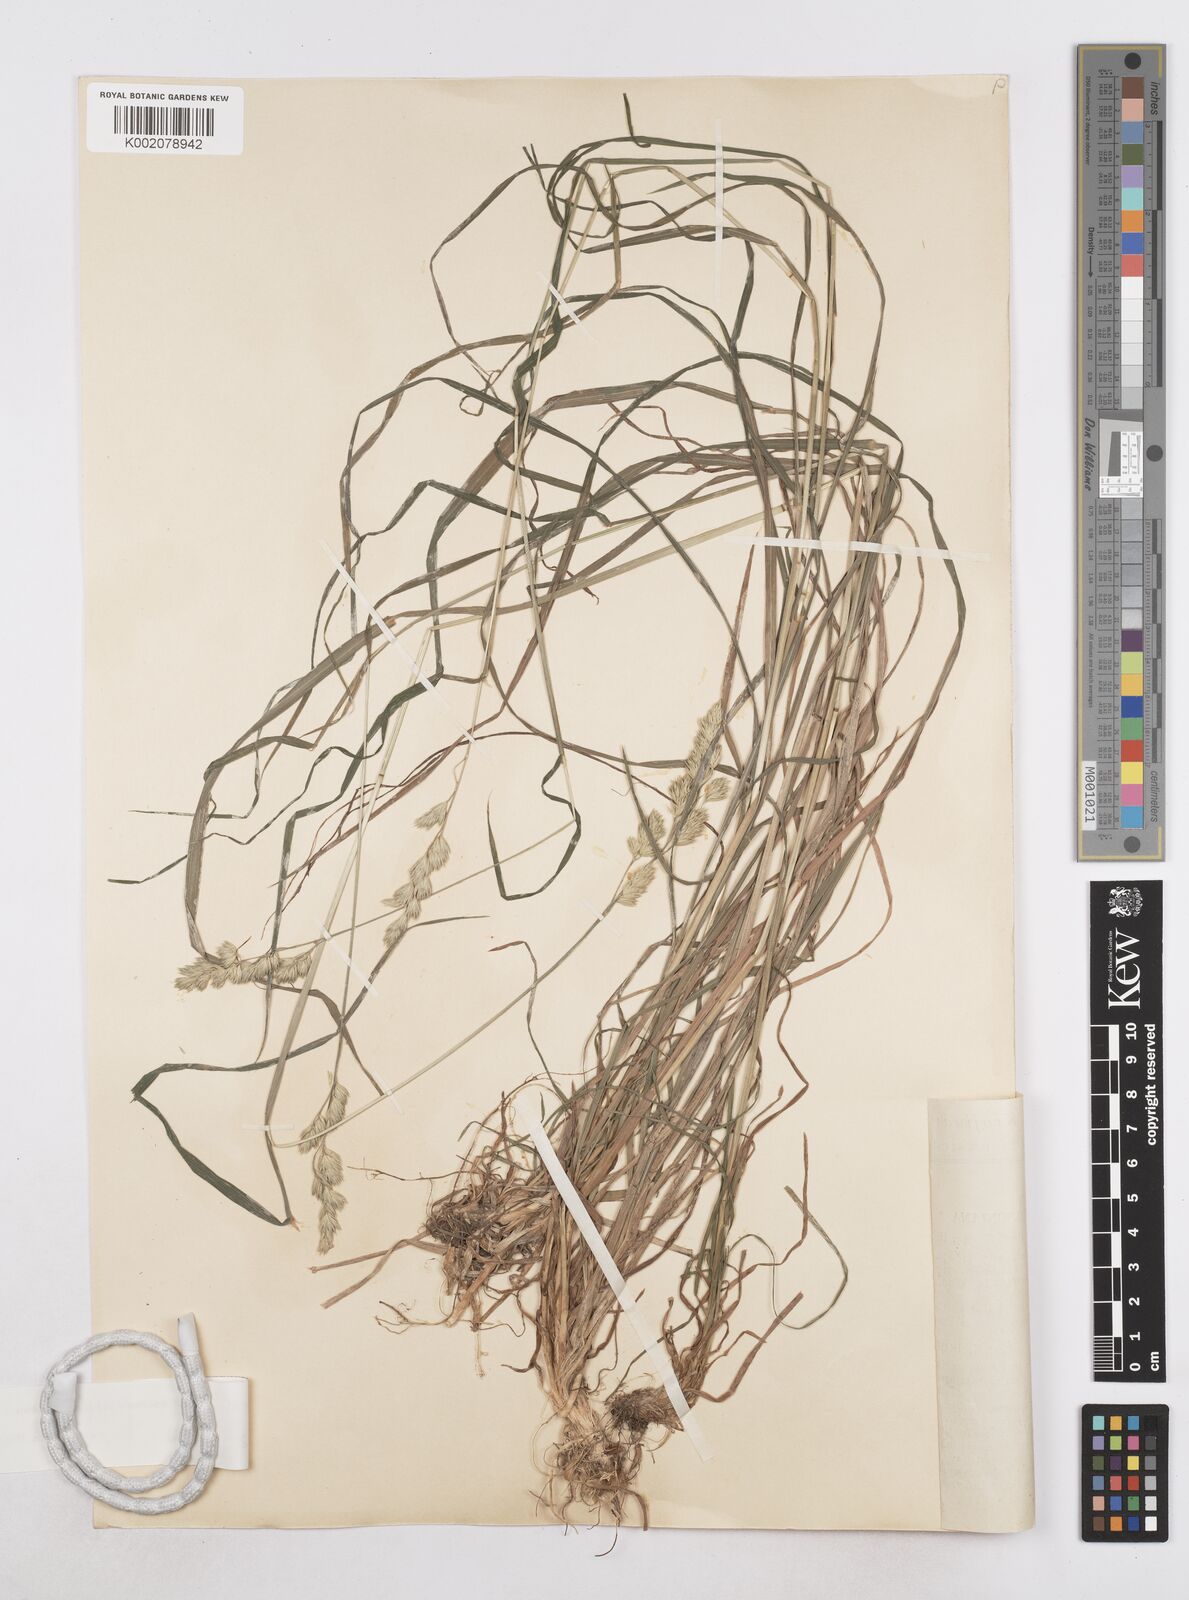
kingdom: Plantae
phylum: Tracheophyta
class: Liliopsida
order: Poales
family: Poaceae
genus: Dactylis
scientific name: Dactylis glomerata
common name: Orchardgrass
